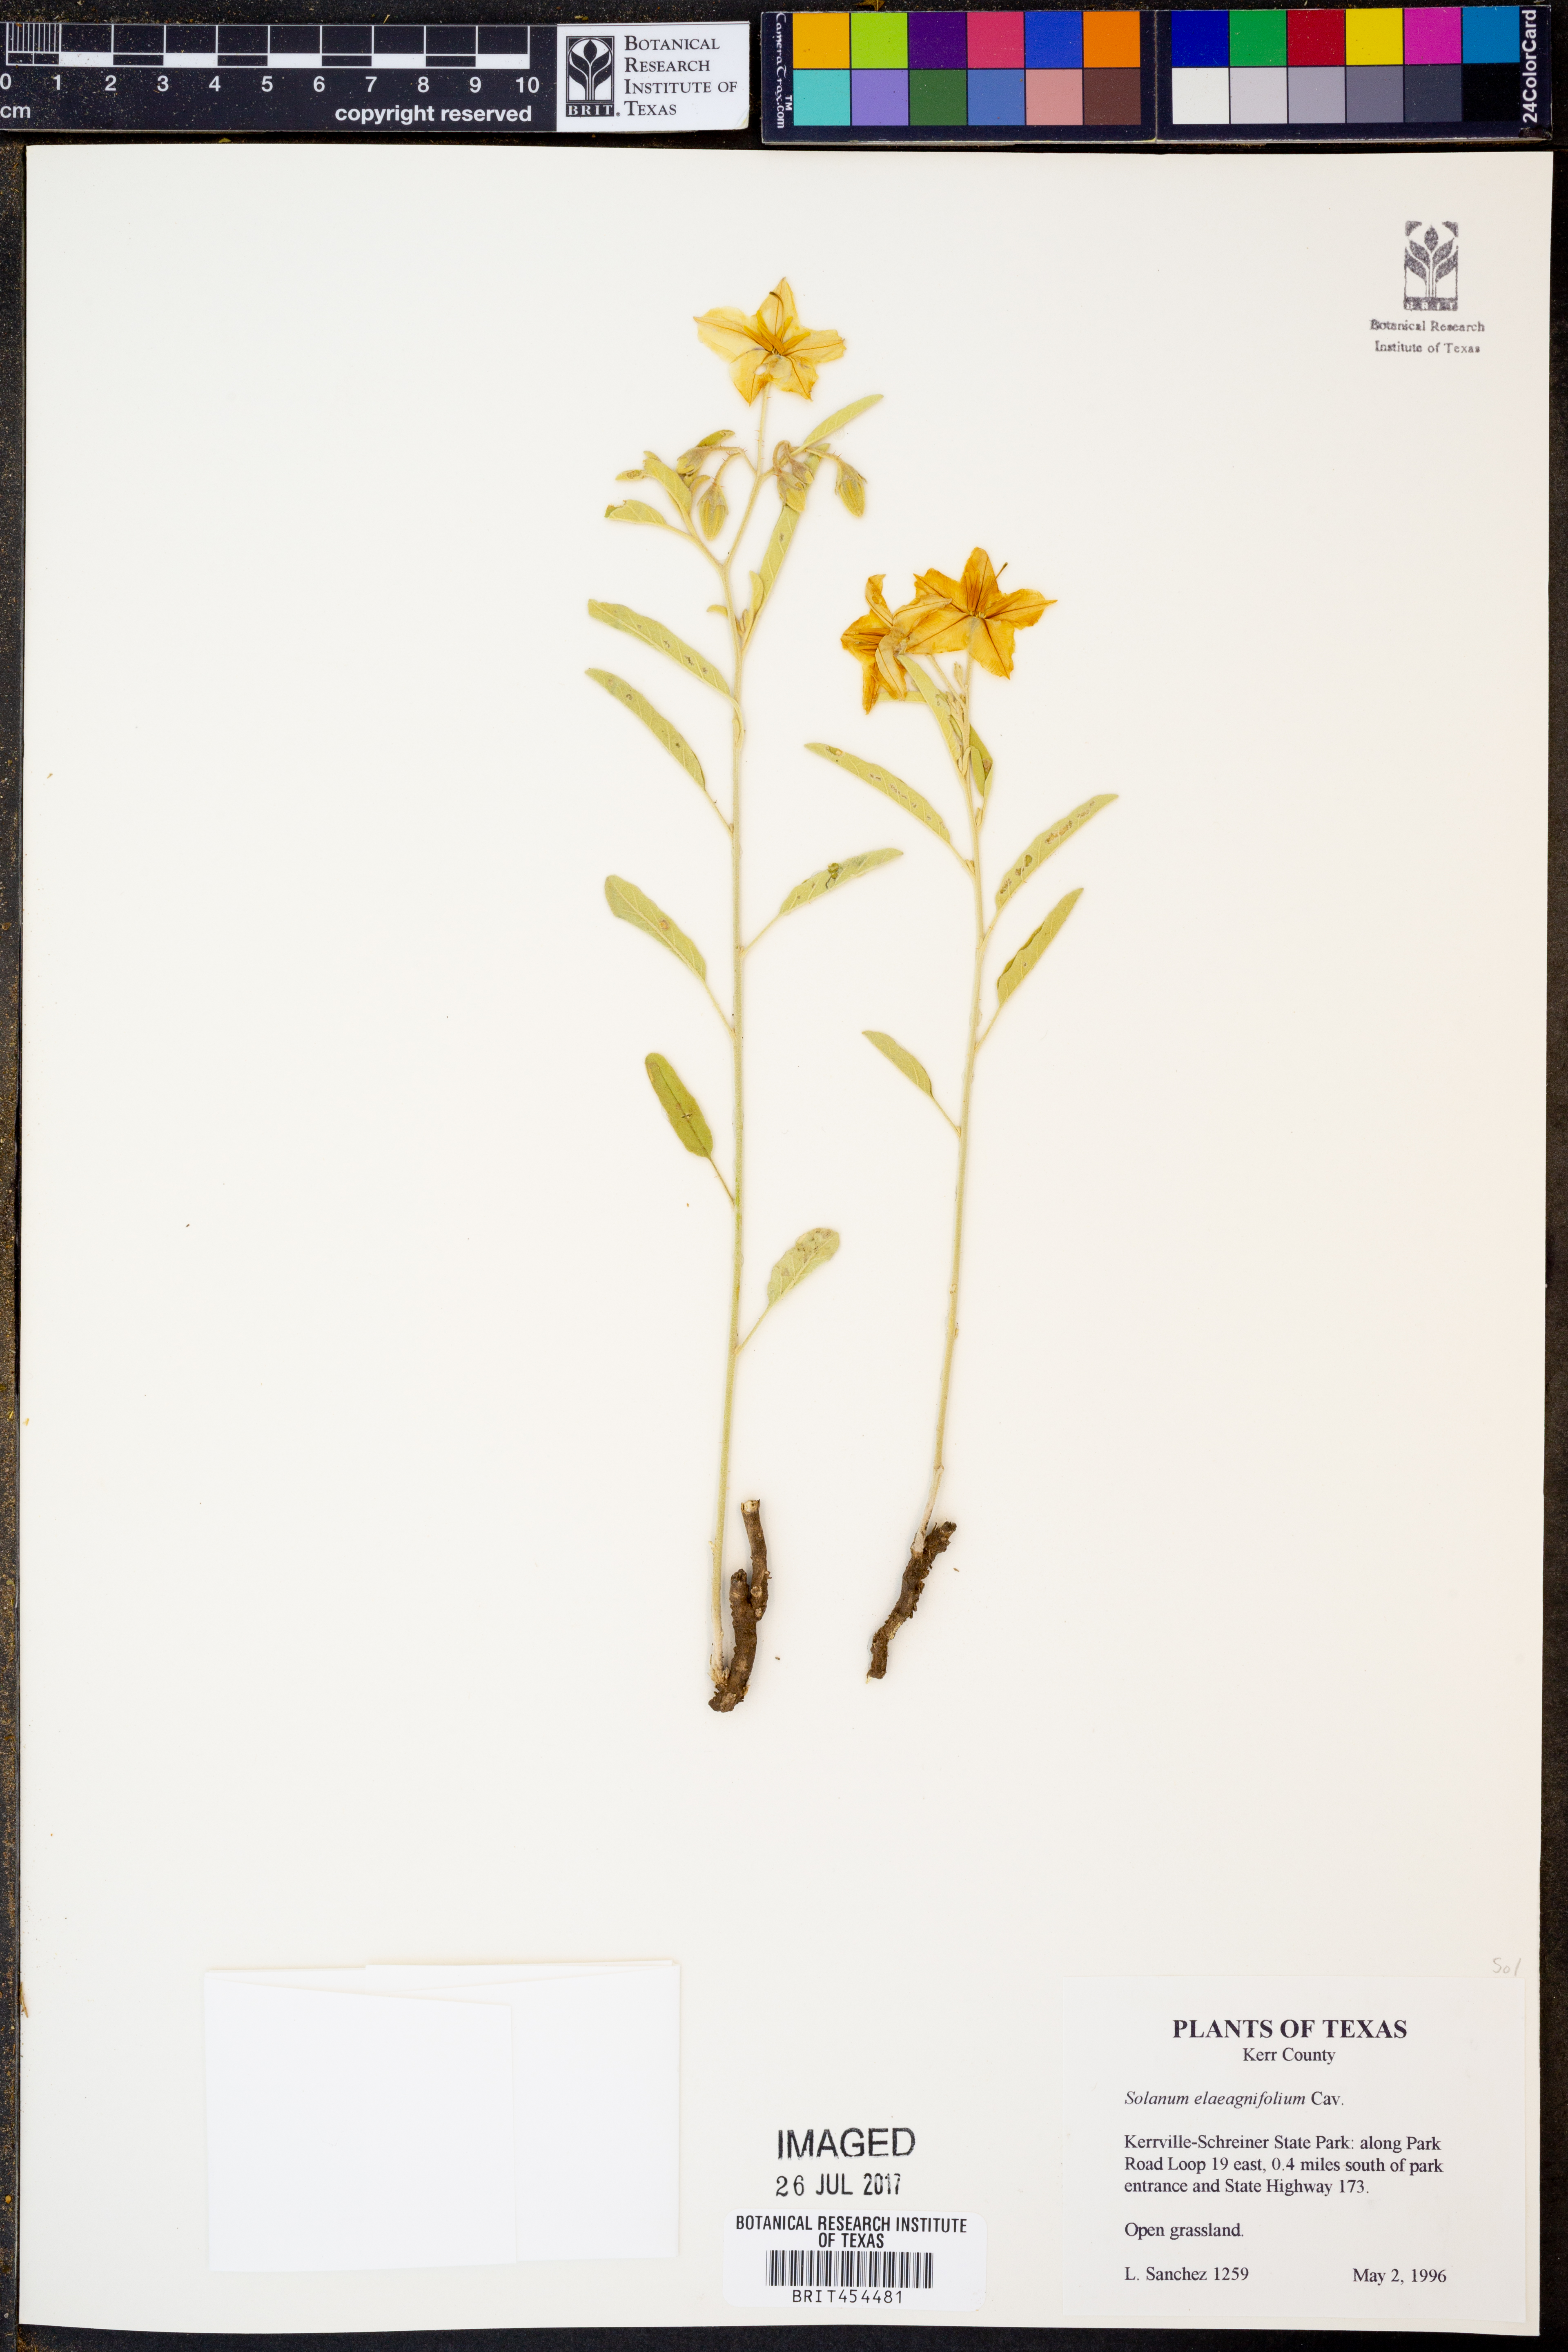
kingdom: Plantae
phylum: Tracheophyta
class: Magnoliopsida
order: Solanales
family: Solanaceae
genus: Solanum
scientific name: Solanum elaeagnifolium
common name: Silverleaf nightshade
